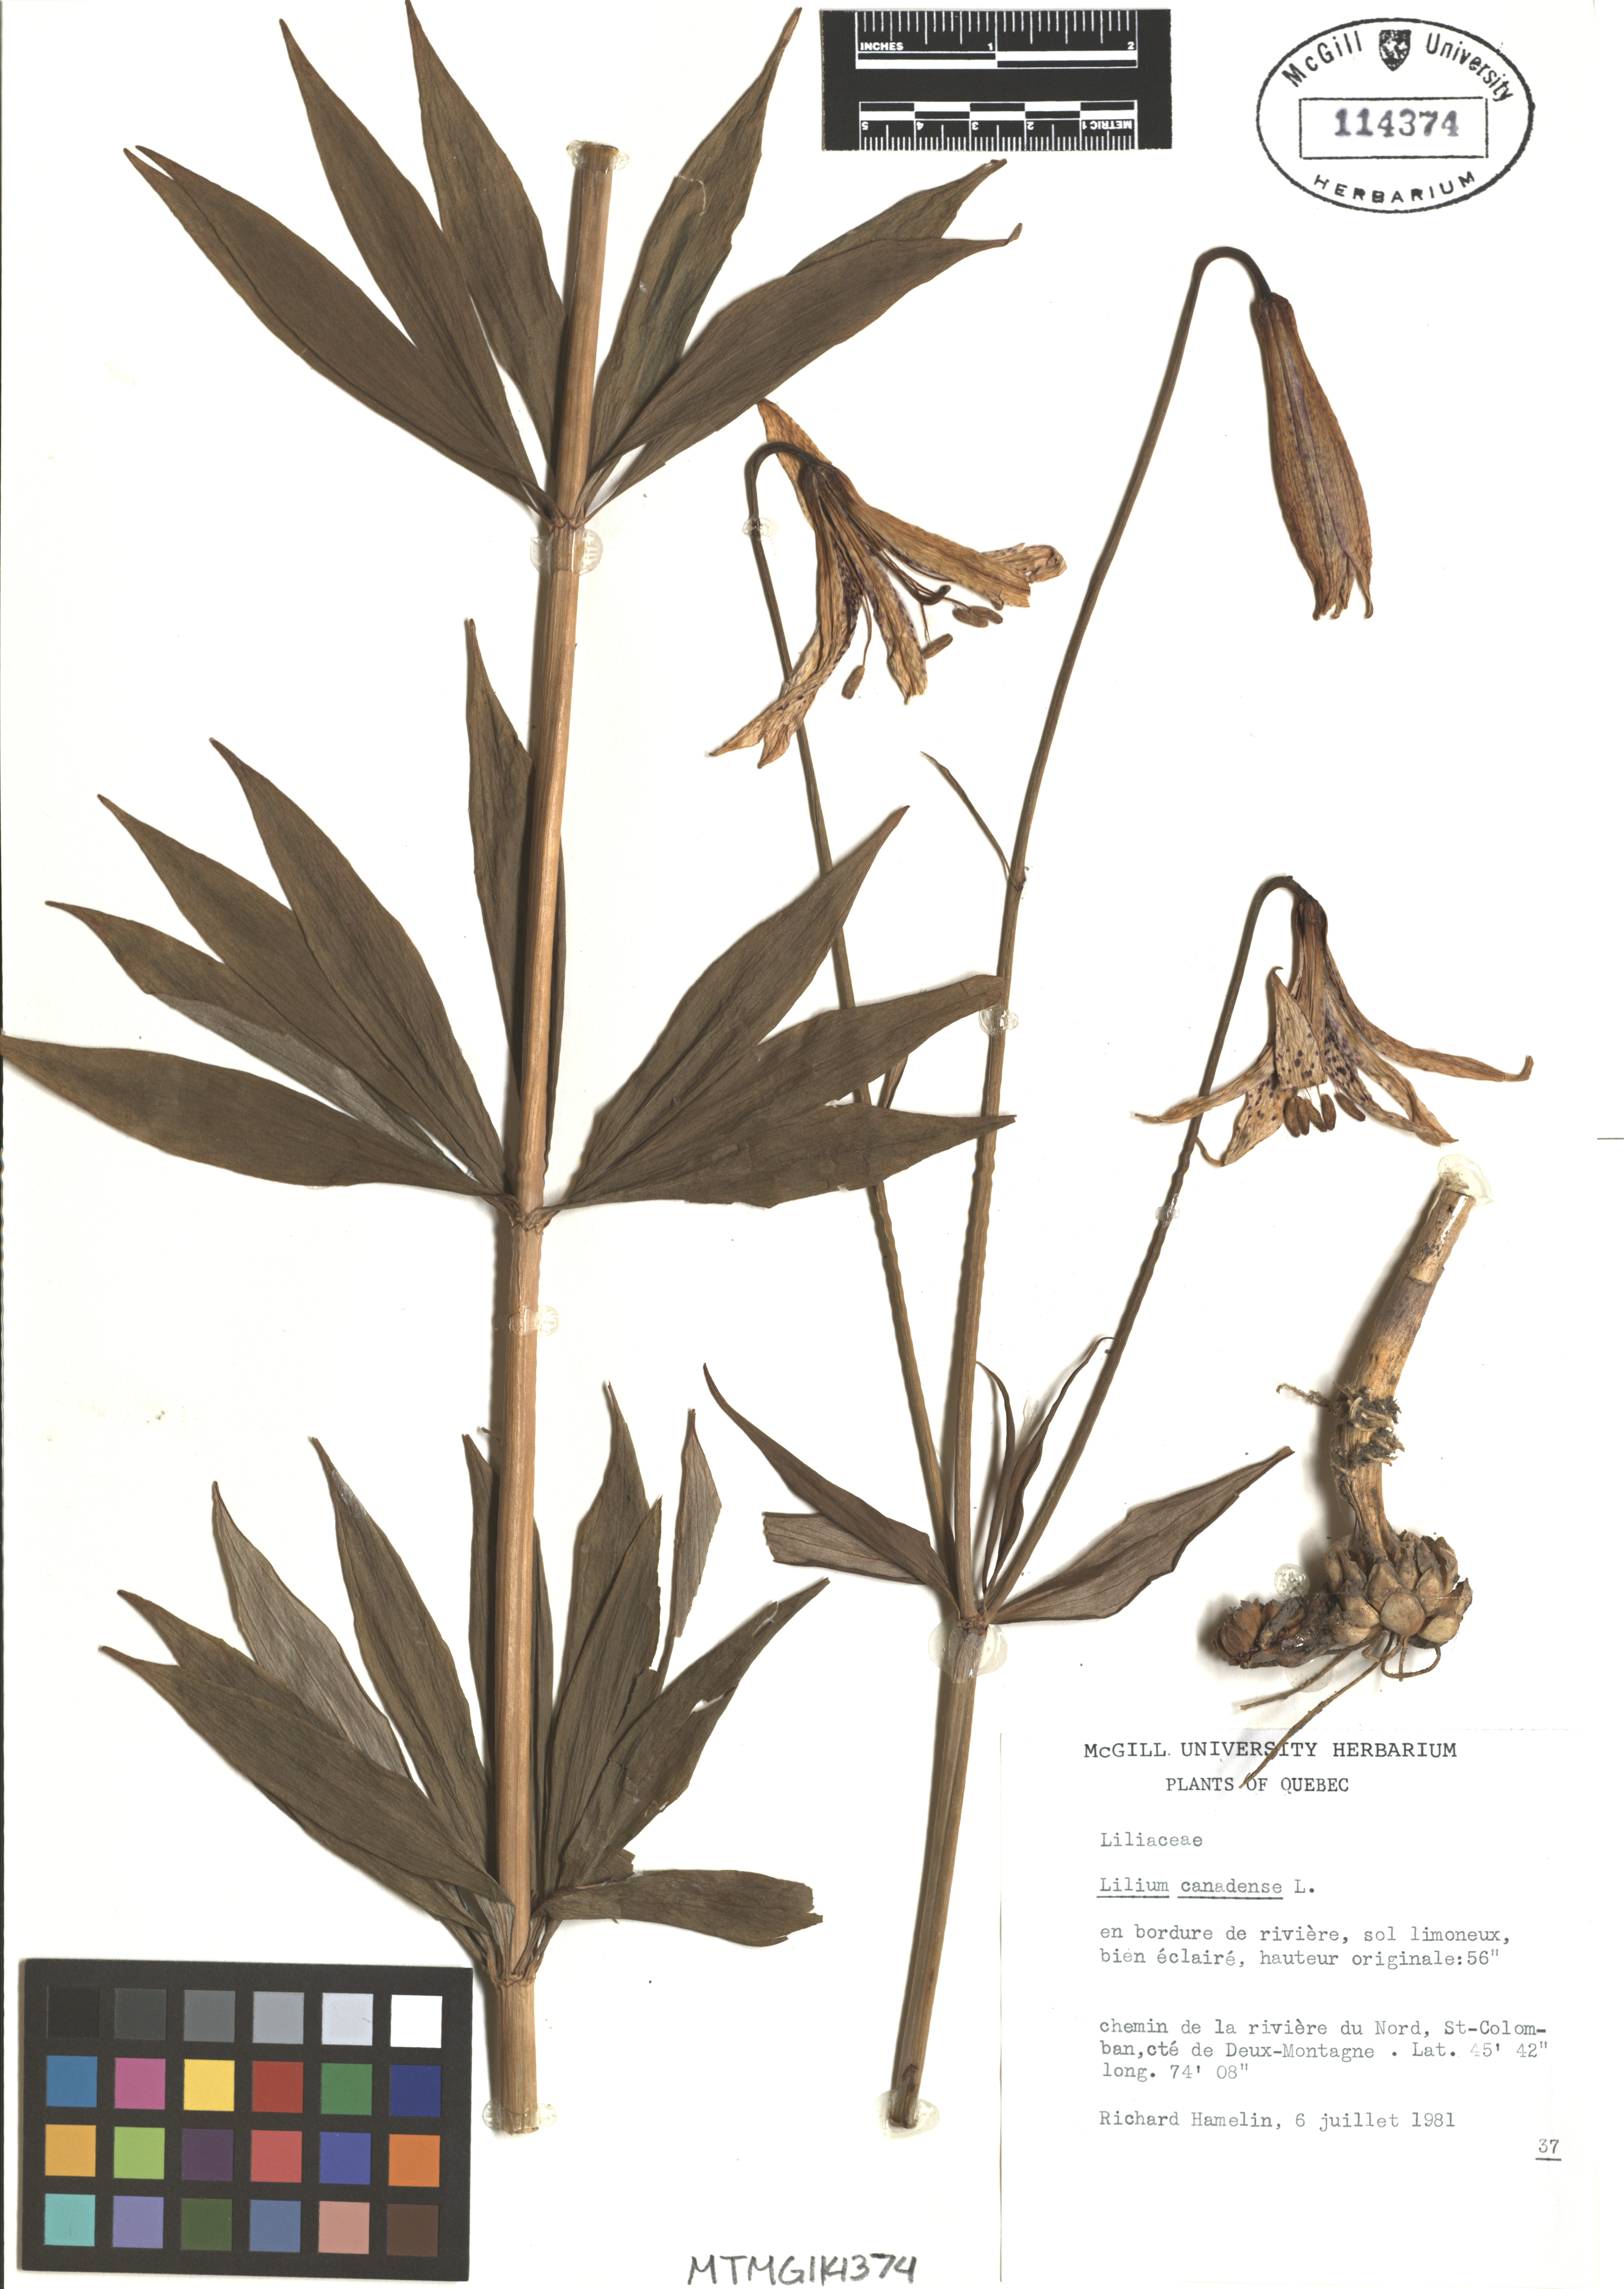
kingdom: Plantae
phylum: Tracheophyta
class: Liliopsida
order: Liliales
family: Liliaceae
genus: Lilium
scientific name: Lilium canadense
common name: Canada lily
